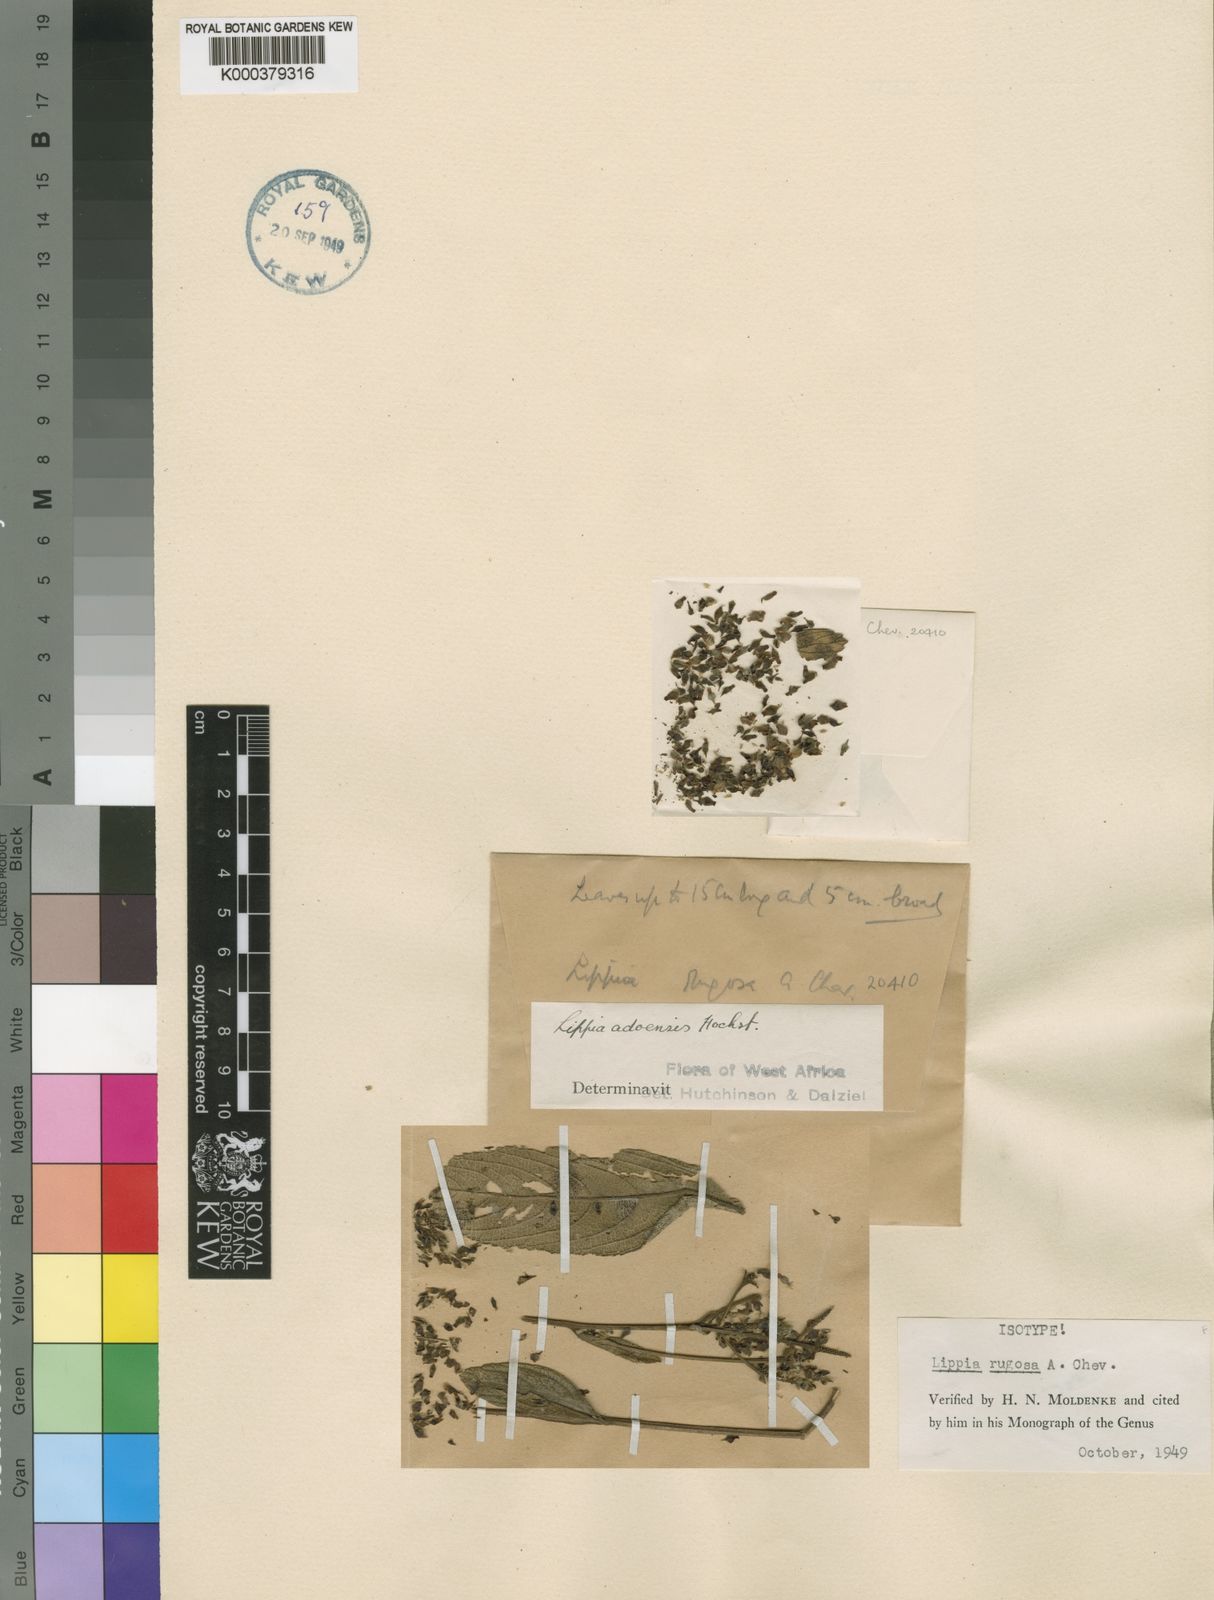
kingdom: Plantae
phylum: Tracheophyta
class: Magnoliopsida
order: Lamiales
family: Verbenaceae
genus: Lippia
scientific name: Lippia rugosa
